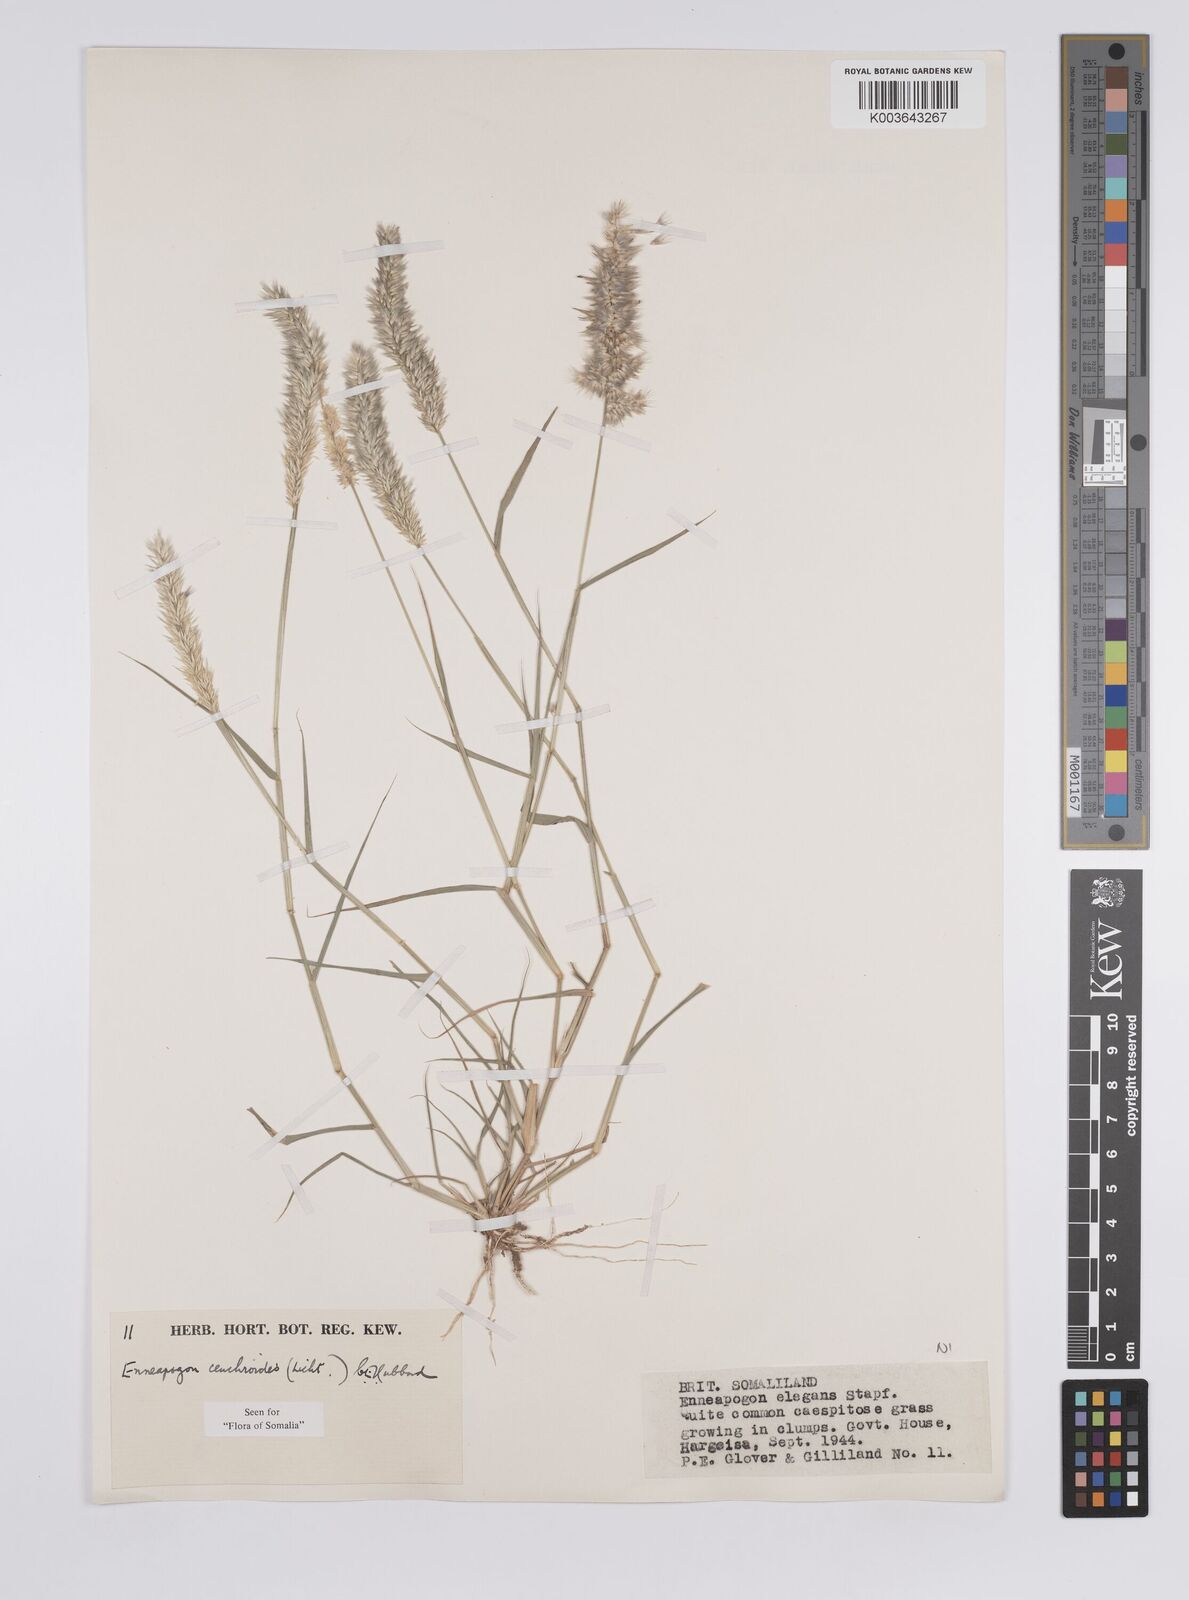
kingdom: Plantae
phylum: Tracheophyta
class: Liliopsida
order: Poales
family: Poaceae
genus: Enneapogon
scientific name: Enneapogon cenchroides
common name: Soft feather pappusgrass
